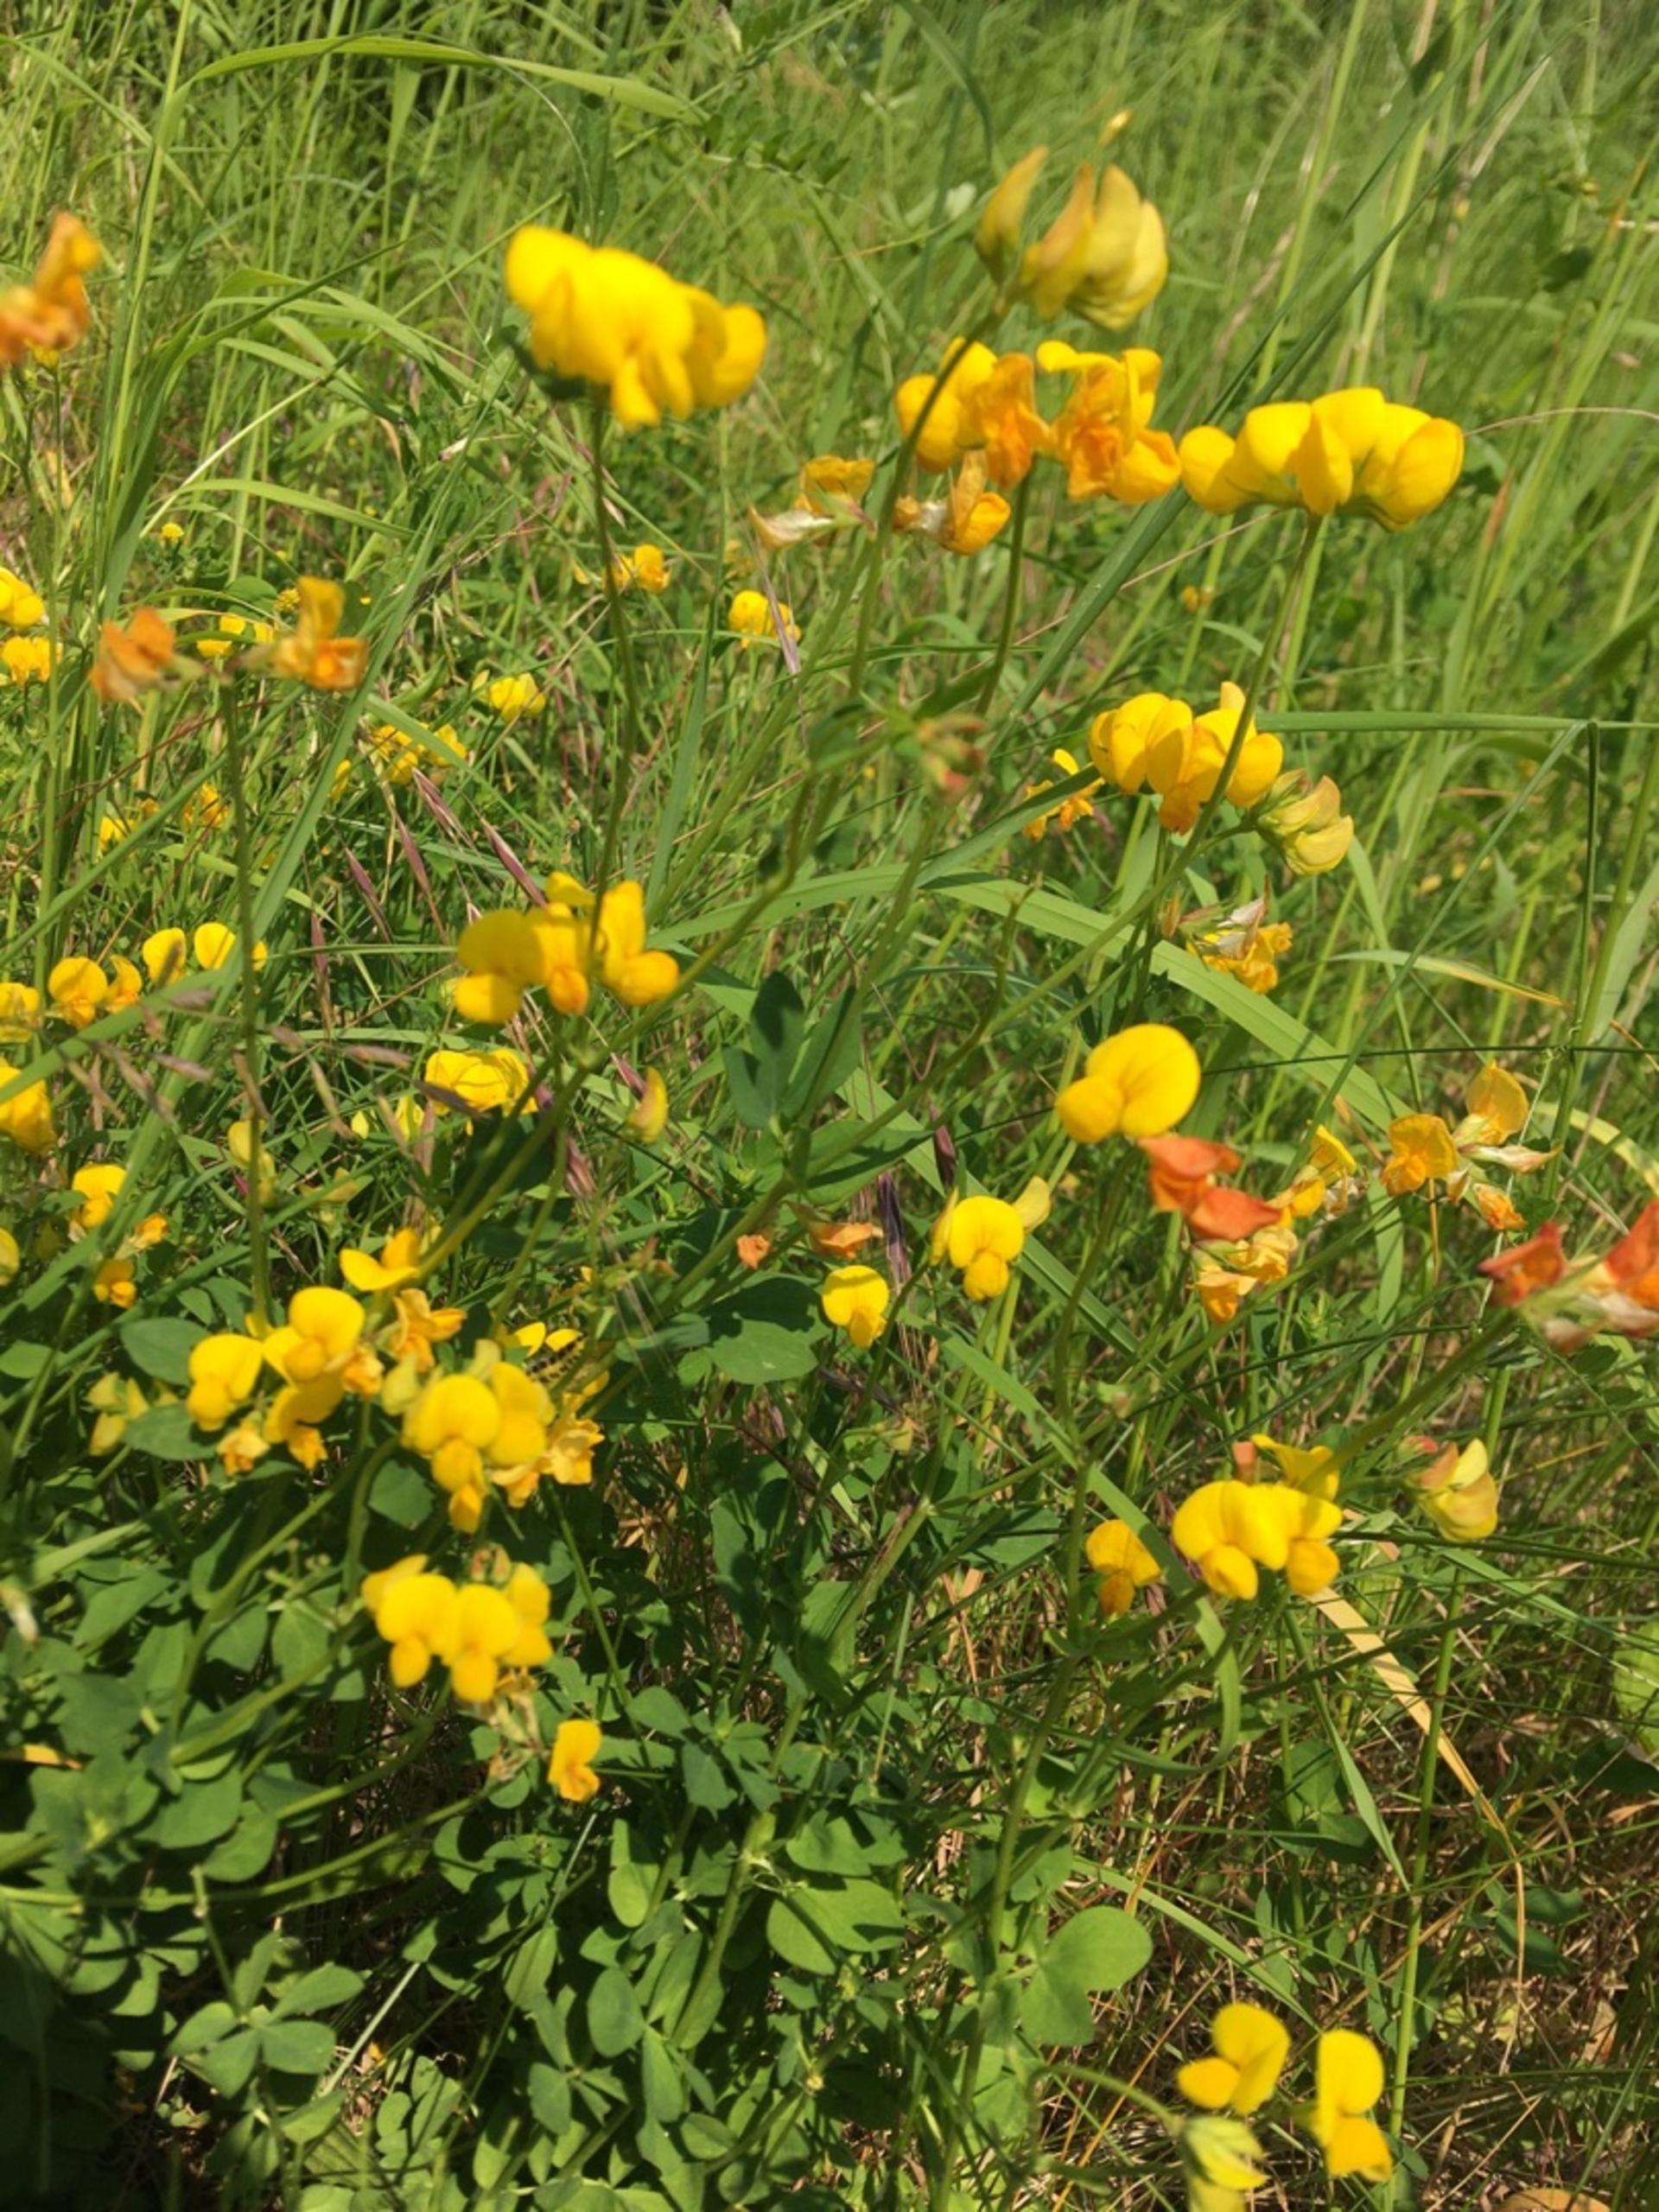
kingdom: Plantae
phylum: Tracheophyta
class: Magnoliopsida
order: Fabales
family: Fabaceae
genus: Lotus
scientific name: Lotus corniculatus
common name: Almindelig kællingetand
